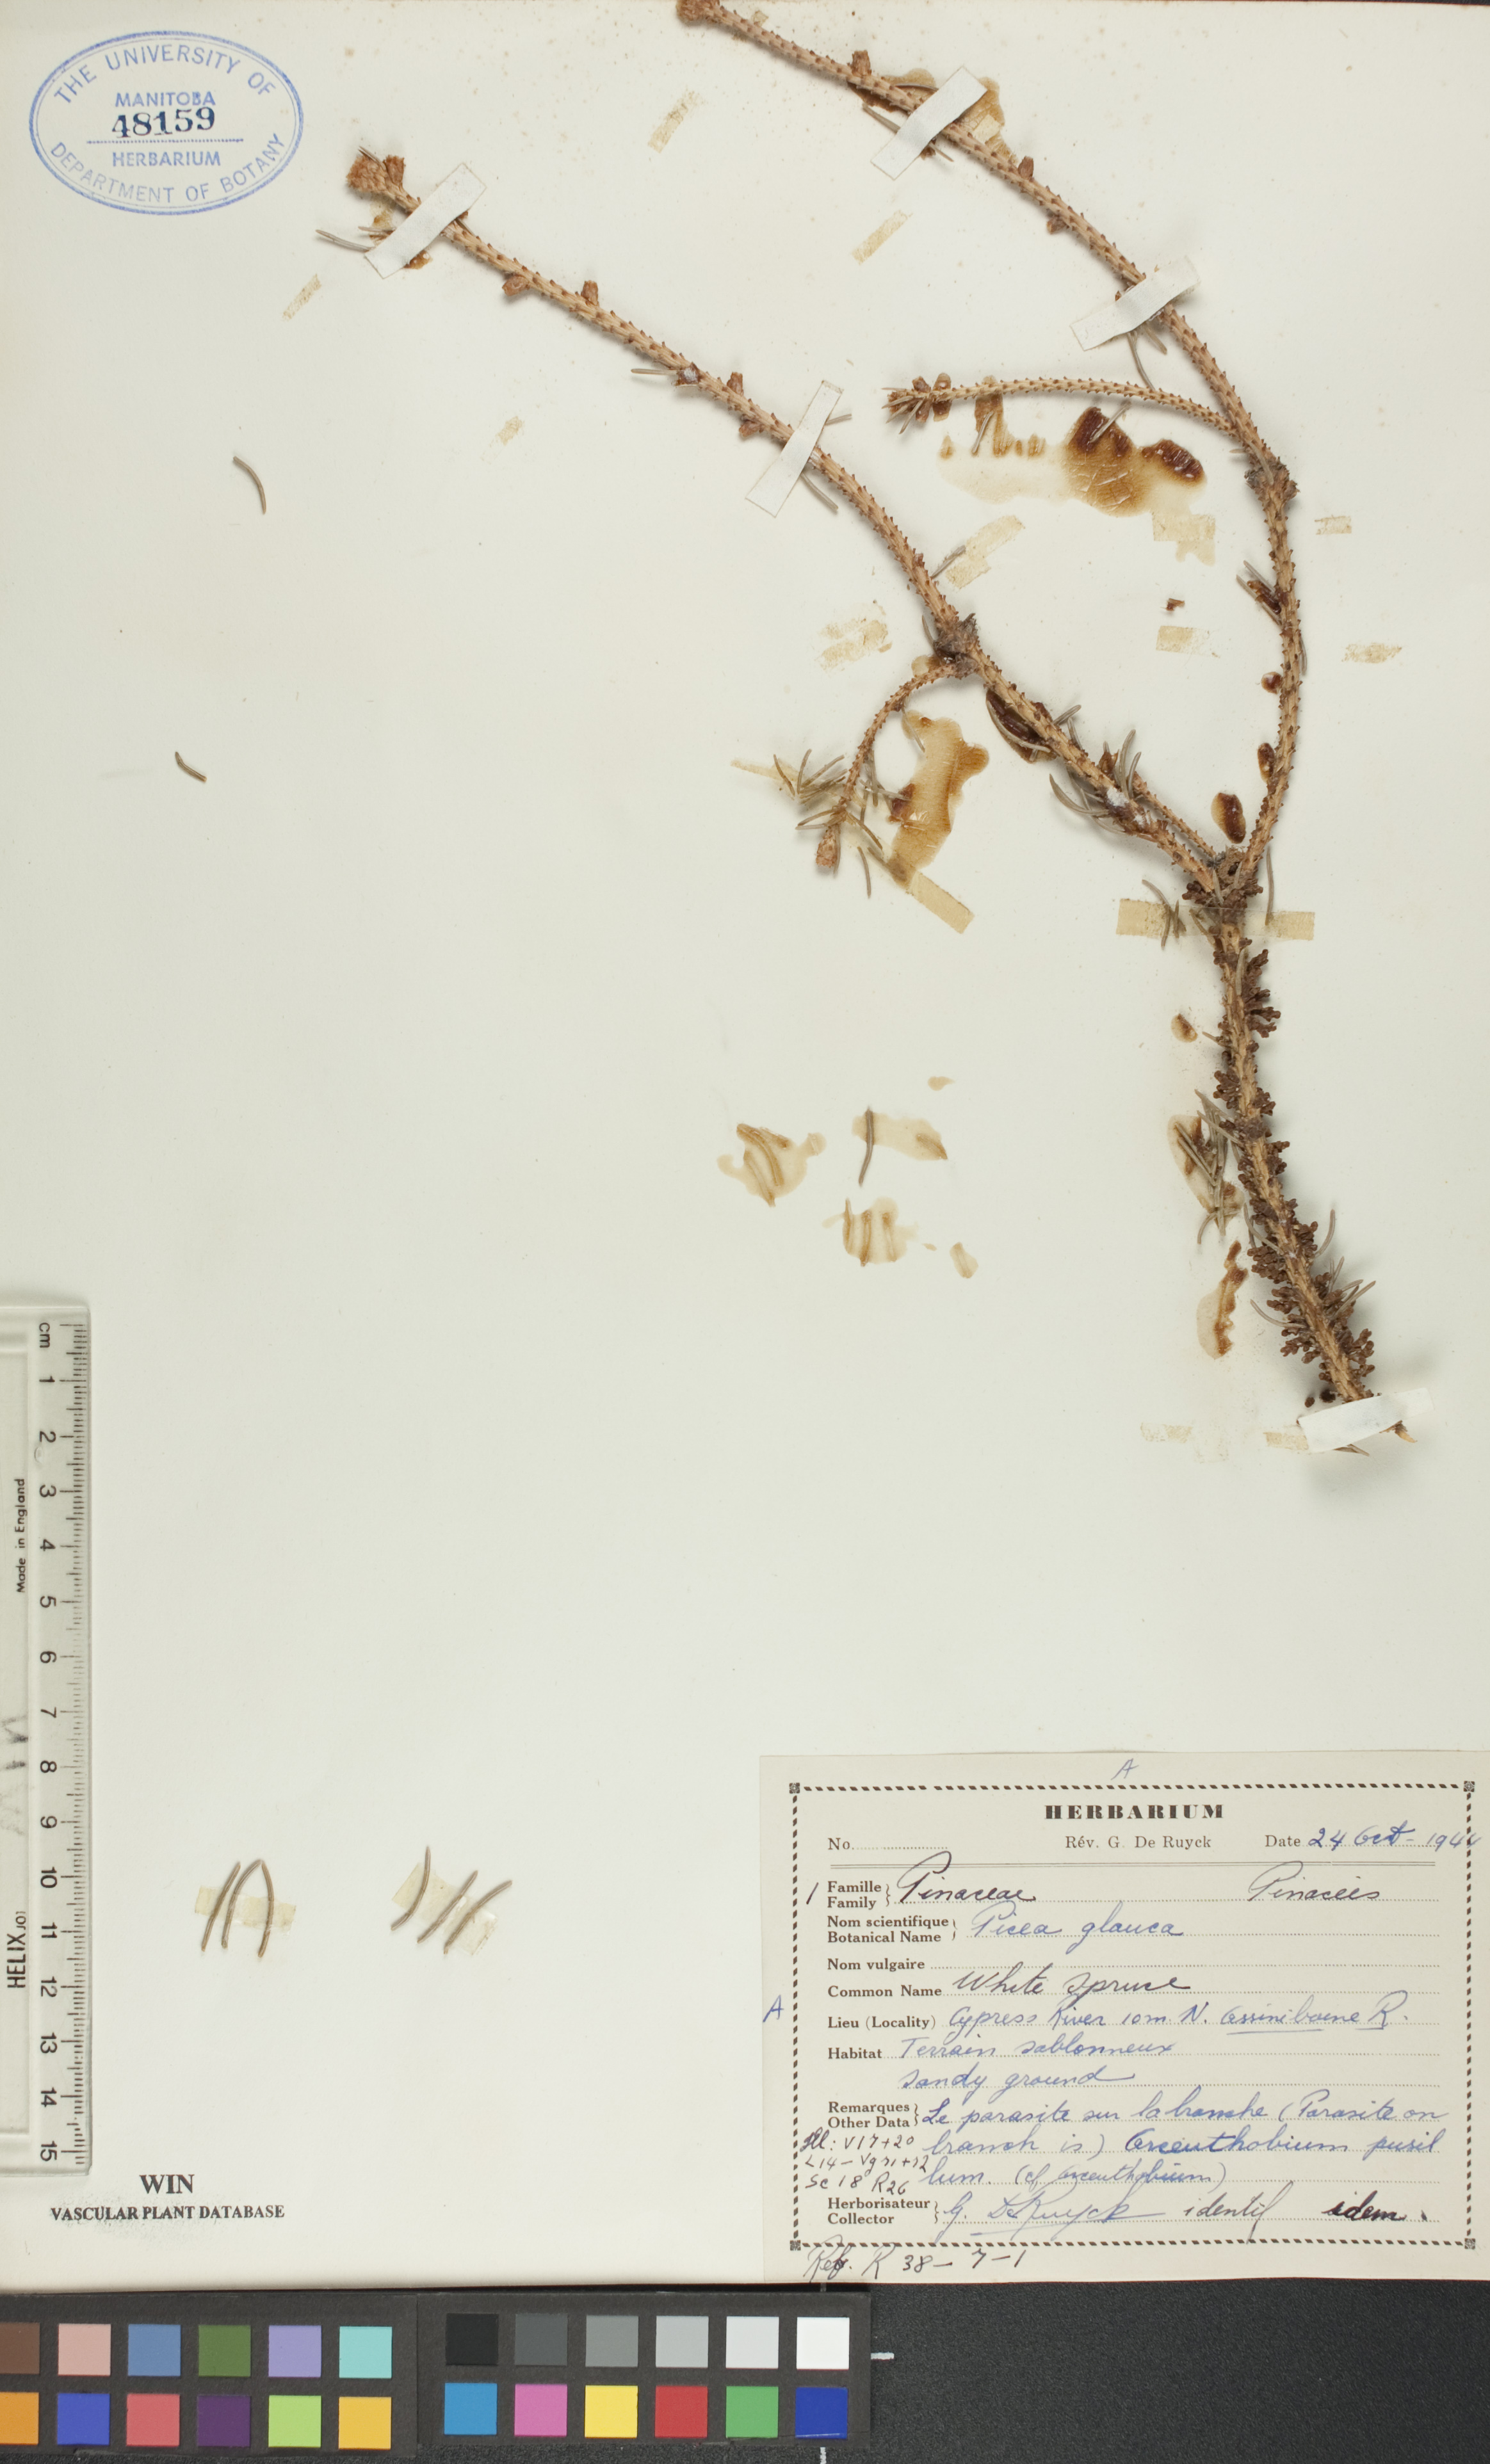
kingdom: Plantae
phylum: Tracheophyta
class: Pinopsida
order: Pinales
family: Pinaceae
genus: Picea
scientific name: Picea glauca
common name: White spruce
